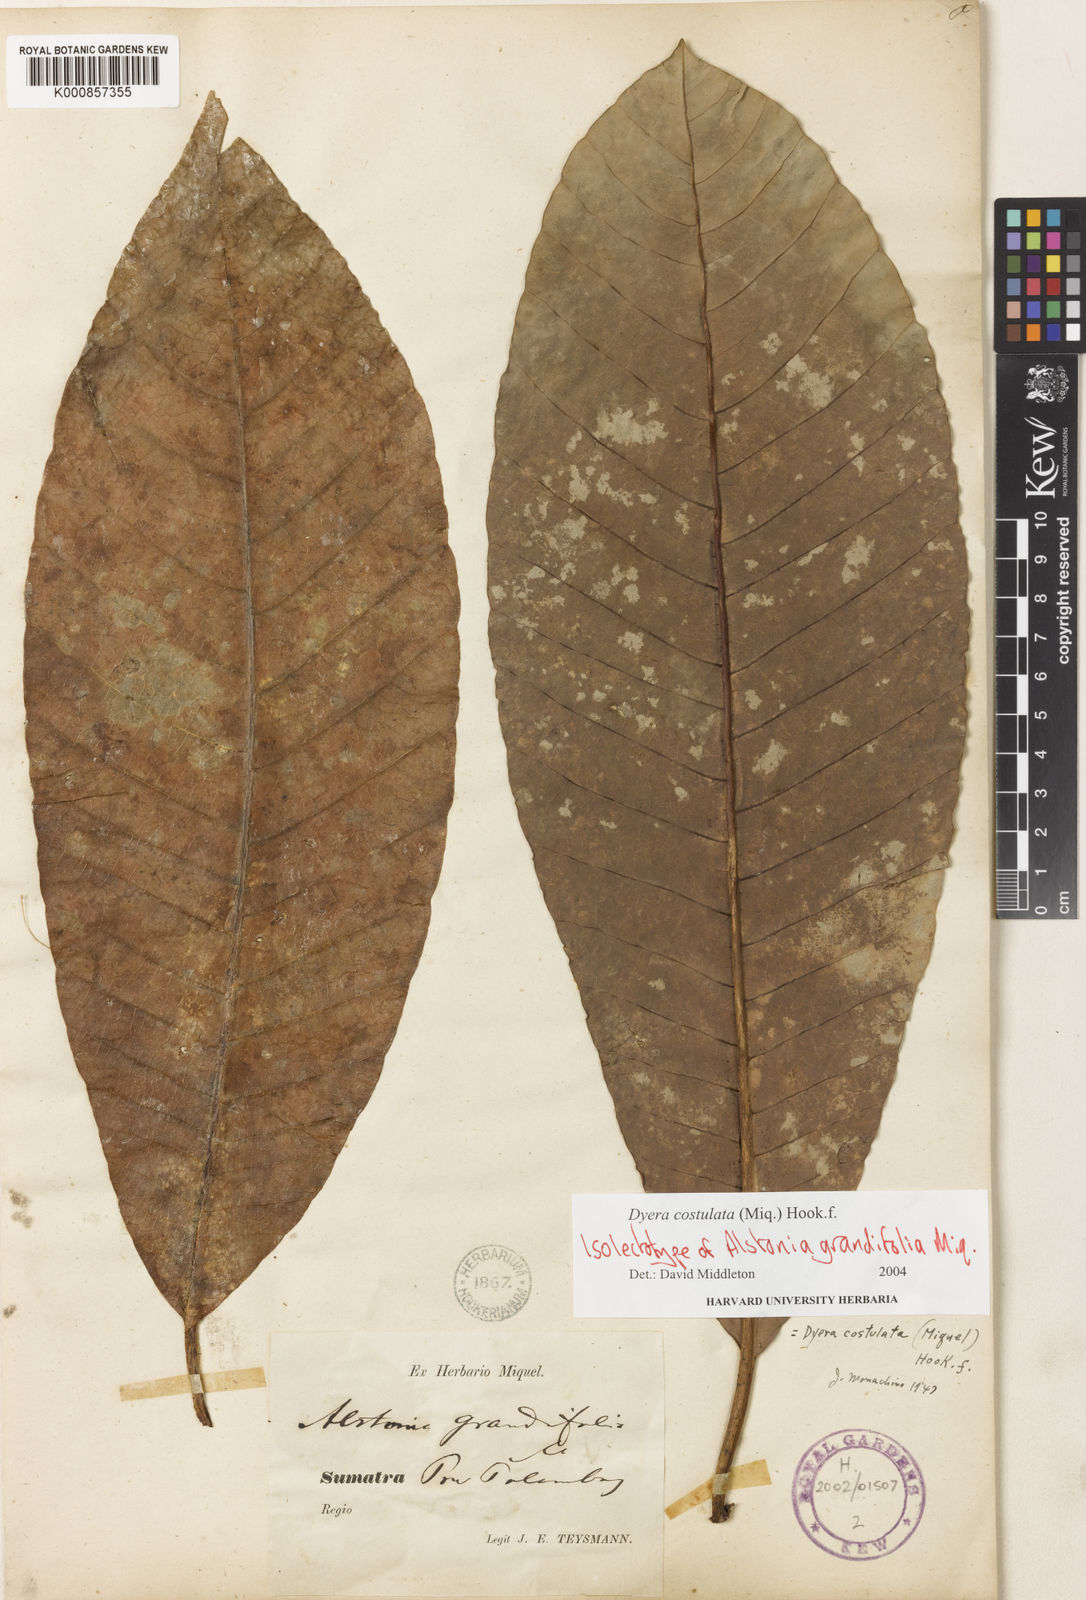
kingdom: Plantae
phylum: Tracheophyta
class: Magnoliopsida
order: Gentianales
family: Apocynaceae
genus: Dyera
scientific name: Dyera costulata
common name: Hill jelutong
